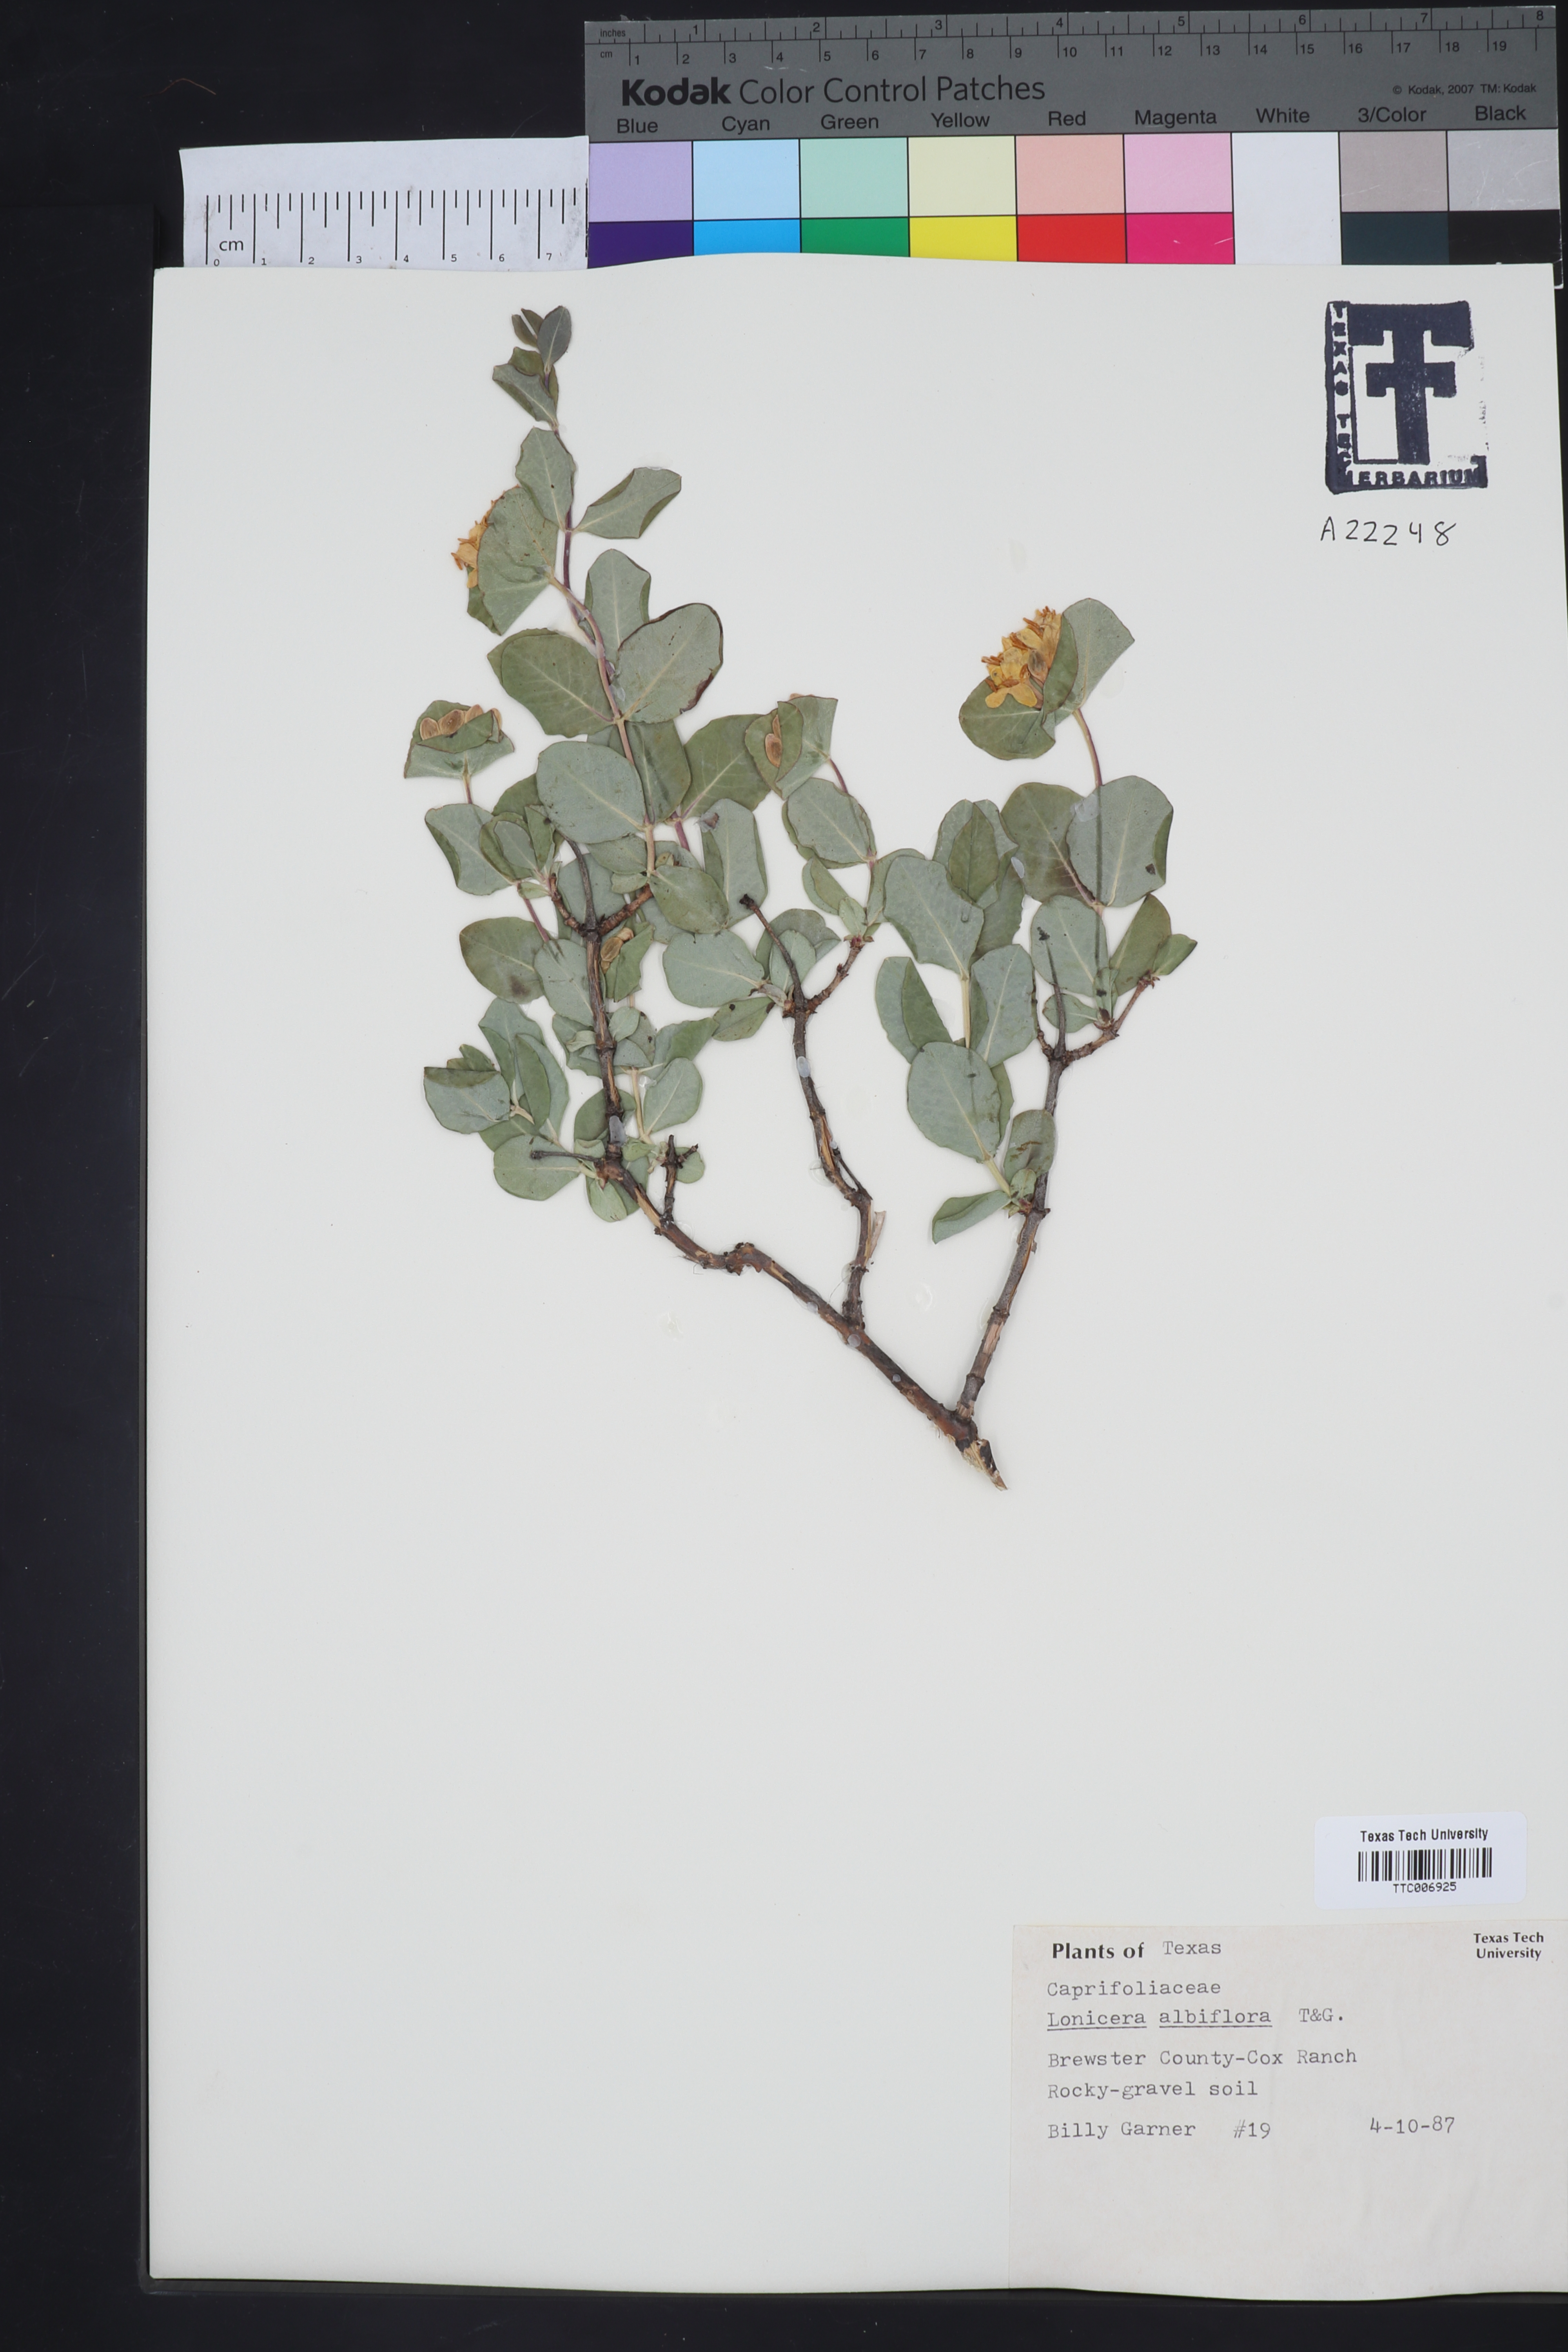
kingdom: Plantae
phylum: Tracheophyta
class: Magnoliopsida
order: Dipsacales
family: Caprifoliaceae
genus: Lonicera
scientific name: Lonicera albiflora
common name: White honeysuckle
